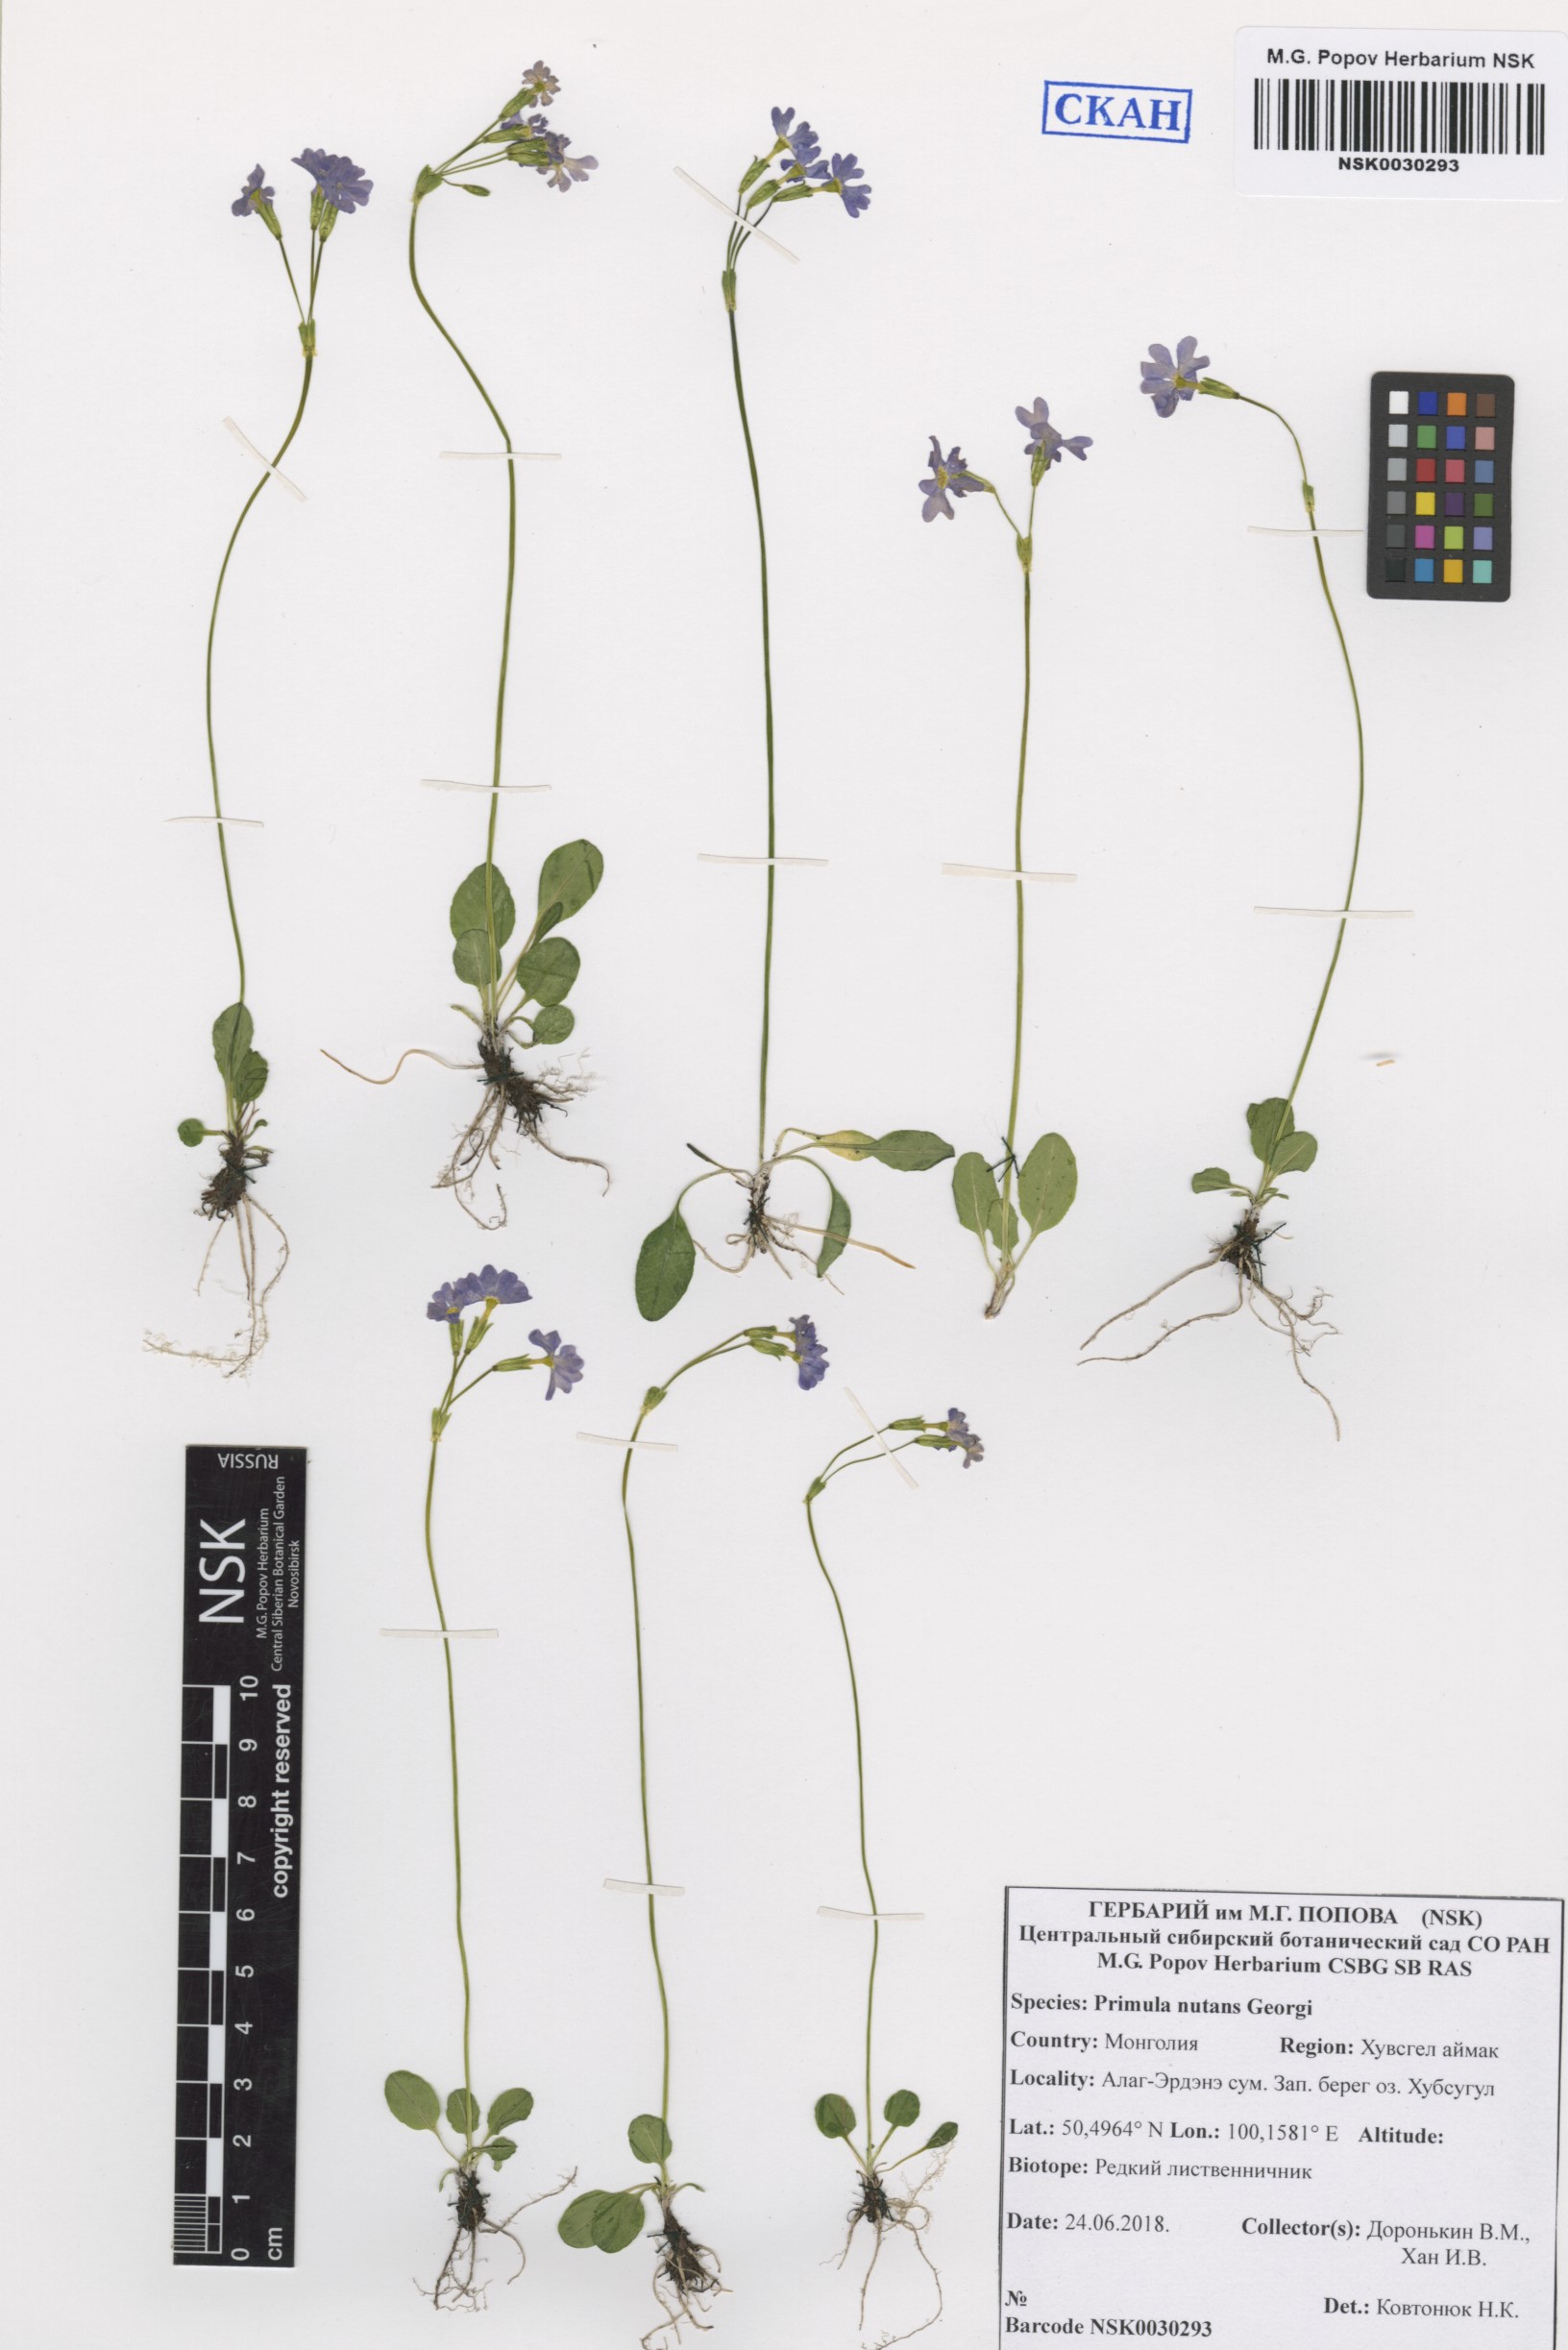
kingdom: Plantae
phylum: Tracheophyta
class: Magnoliopsida
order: Ericales
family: Primulaceae
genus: Primula
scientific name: Primula nutans
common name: Siberian primrose
